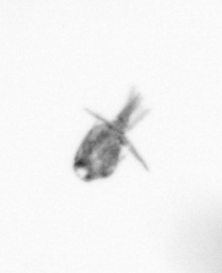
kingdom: Animalia
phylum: Arthropoda
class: Copepoda
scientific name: Copepoda
